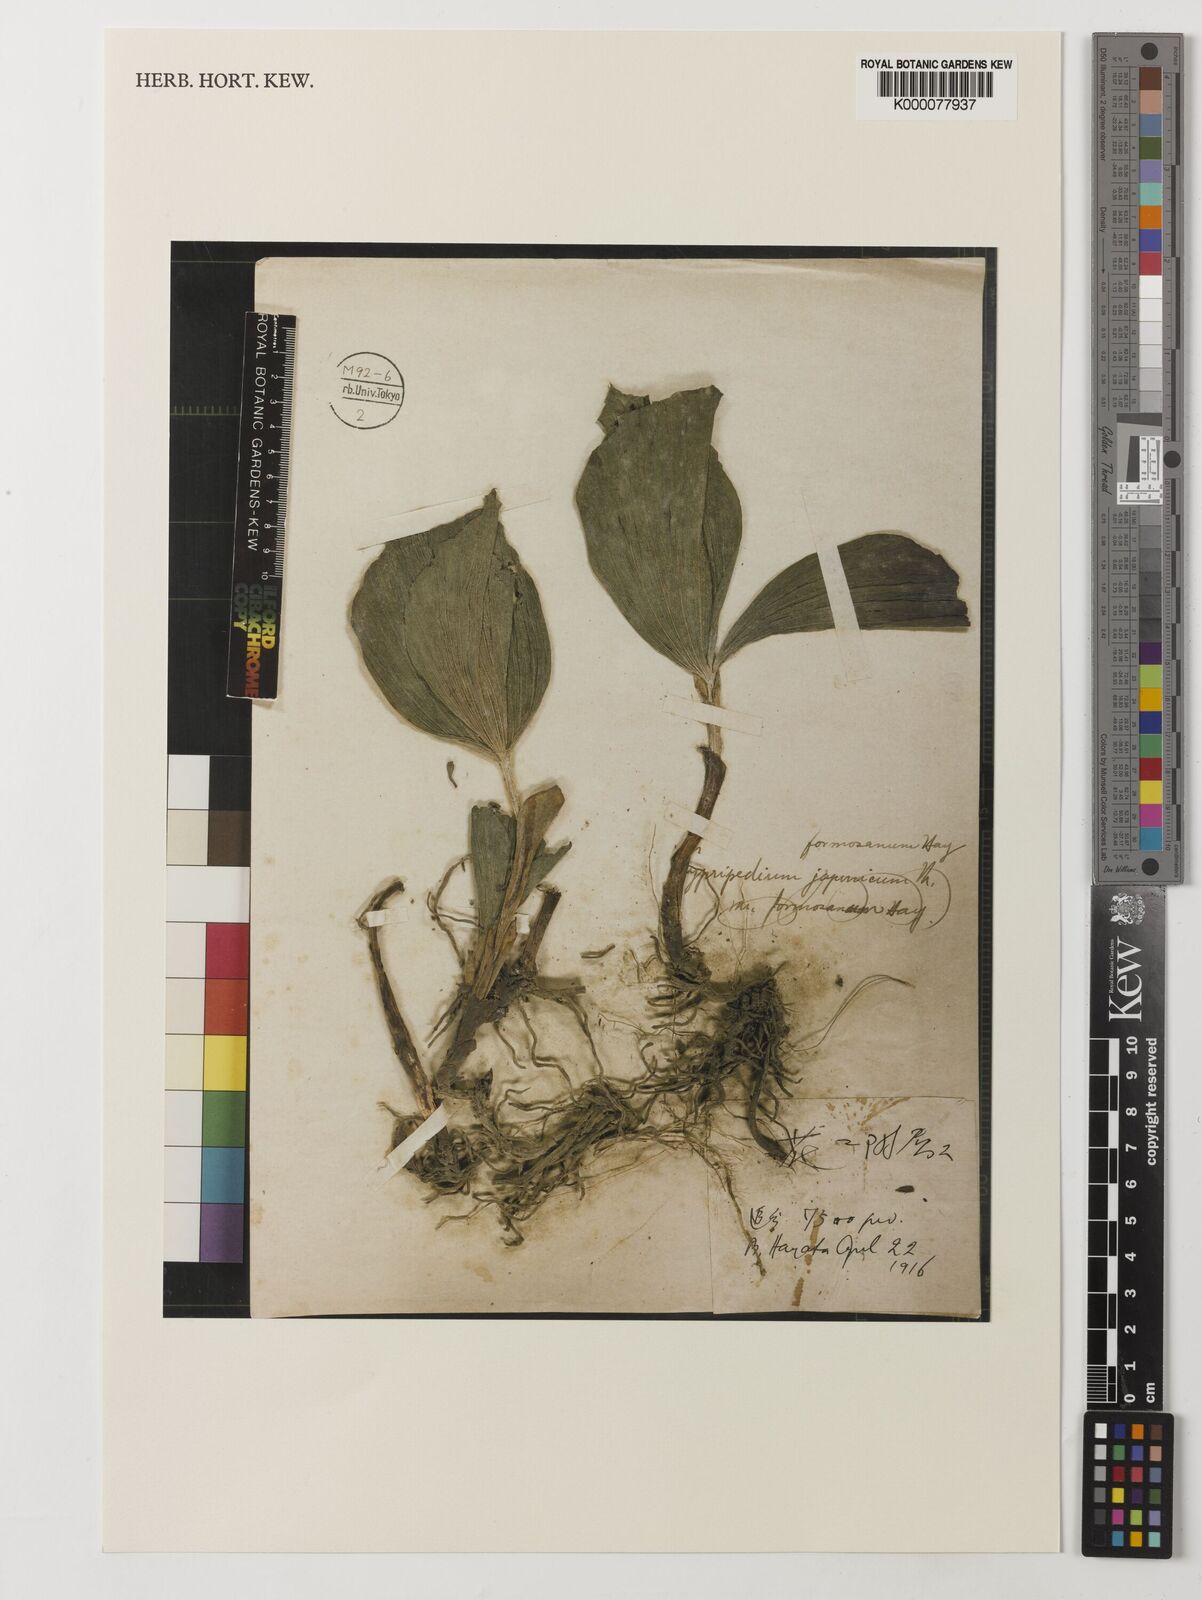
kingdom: Plantae
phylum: Tracheophyta
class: Liliopsida
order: Asparagales
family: Orchidaceae
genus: Cypripedium
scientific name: Cypripedium formosanum
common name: Formosa's lady's slipper
